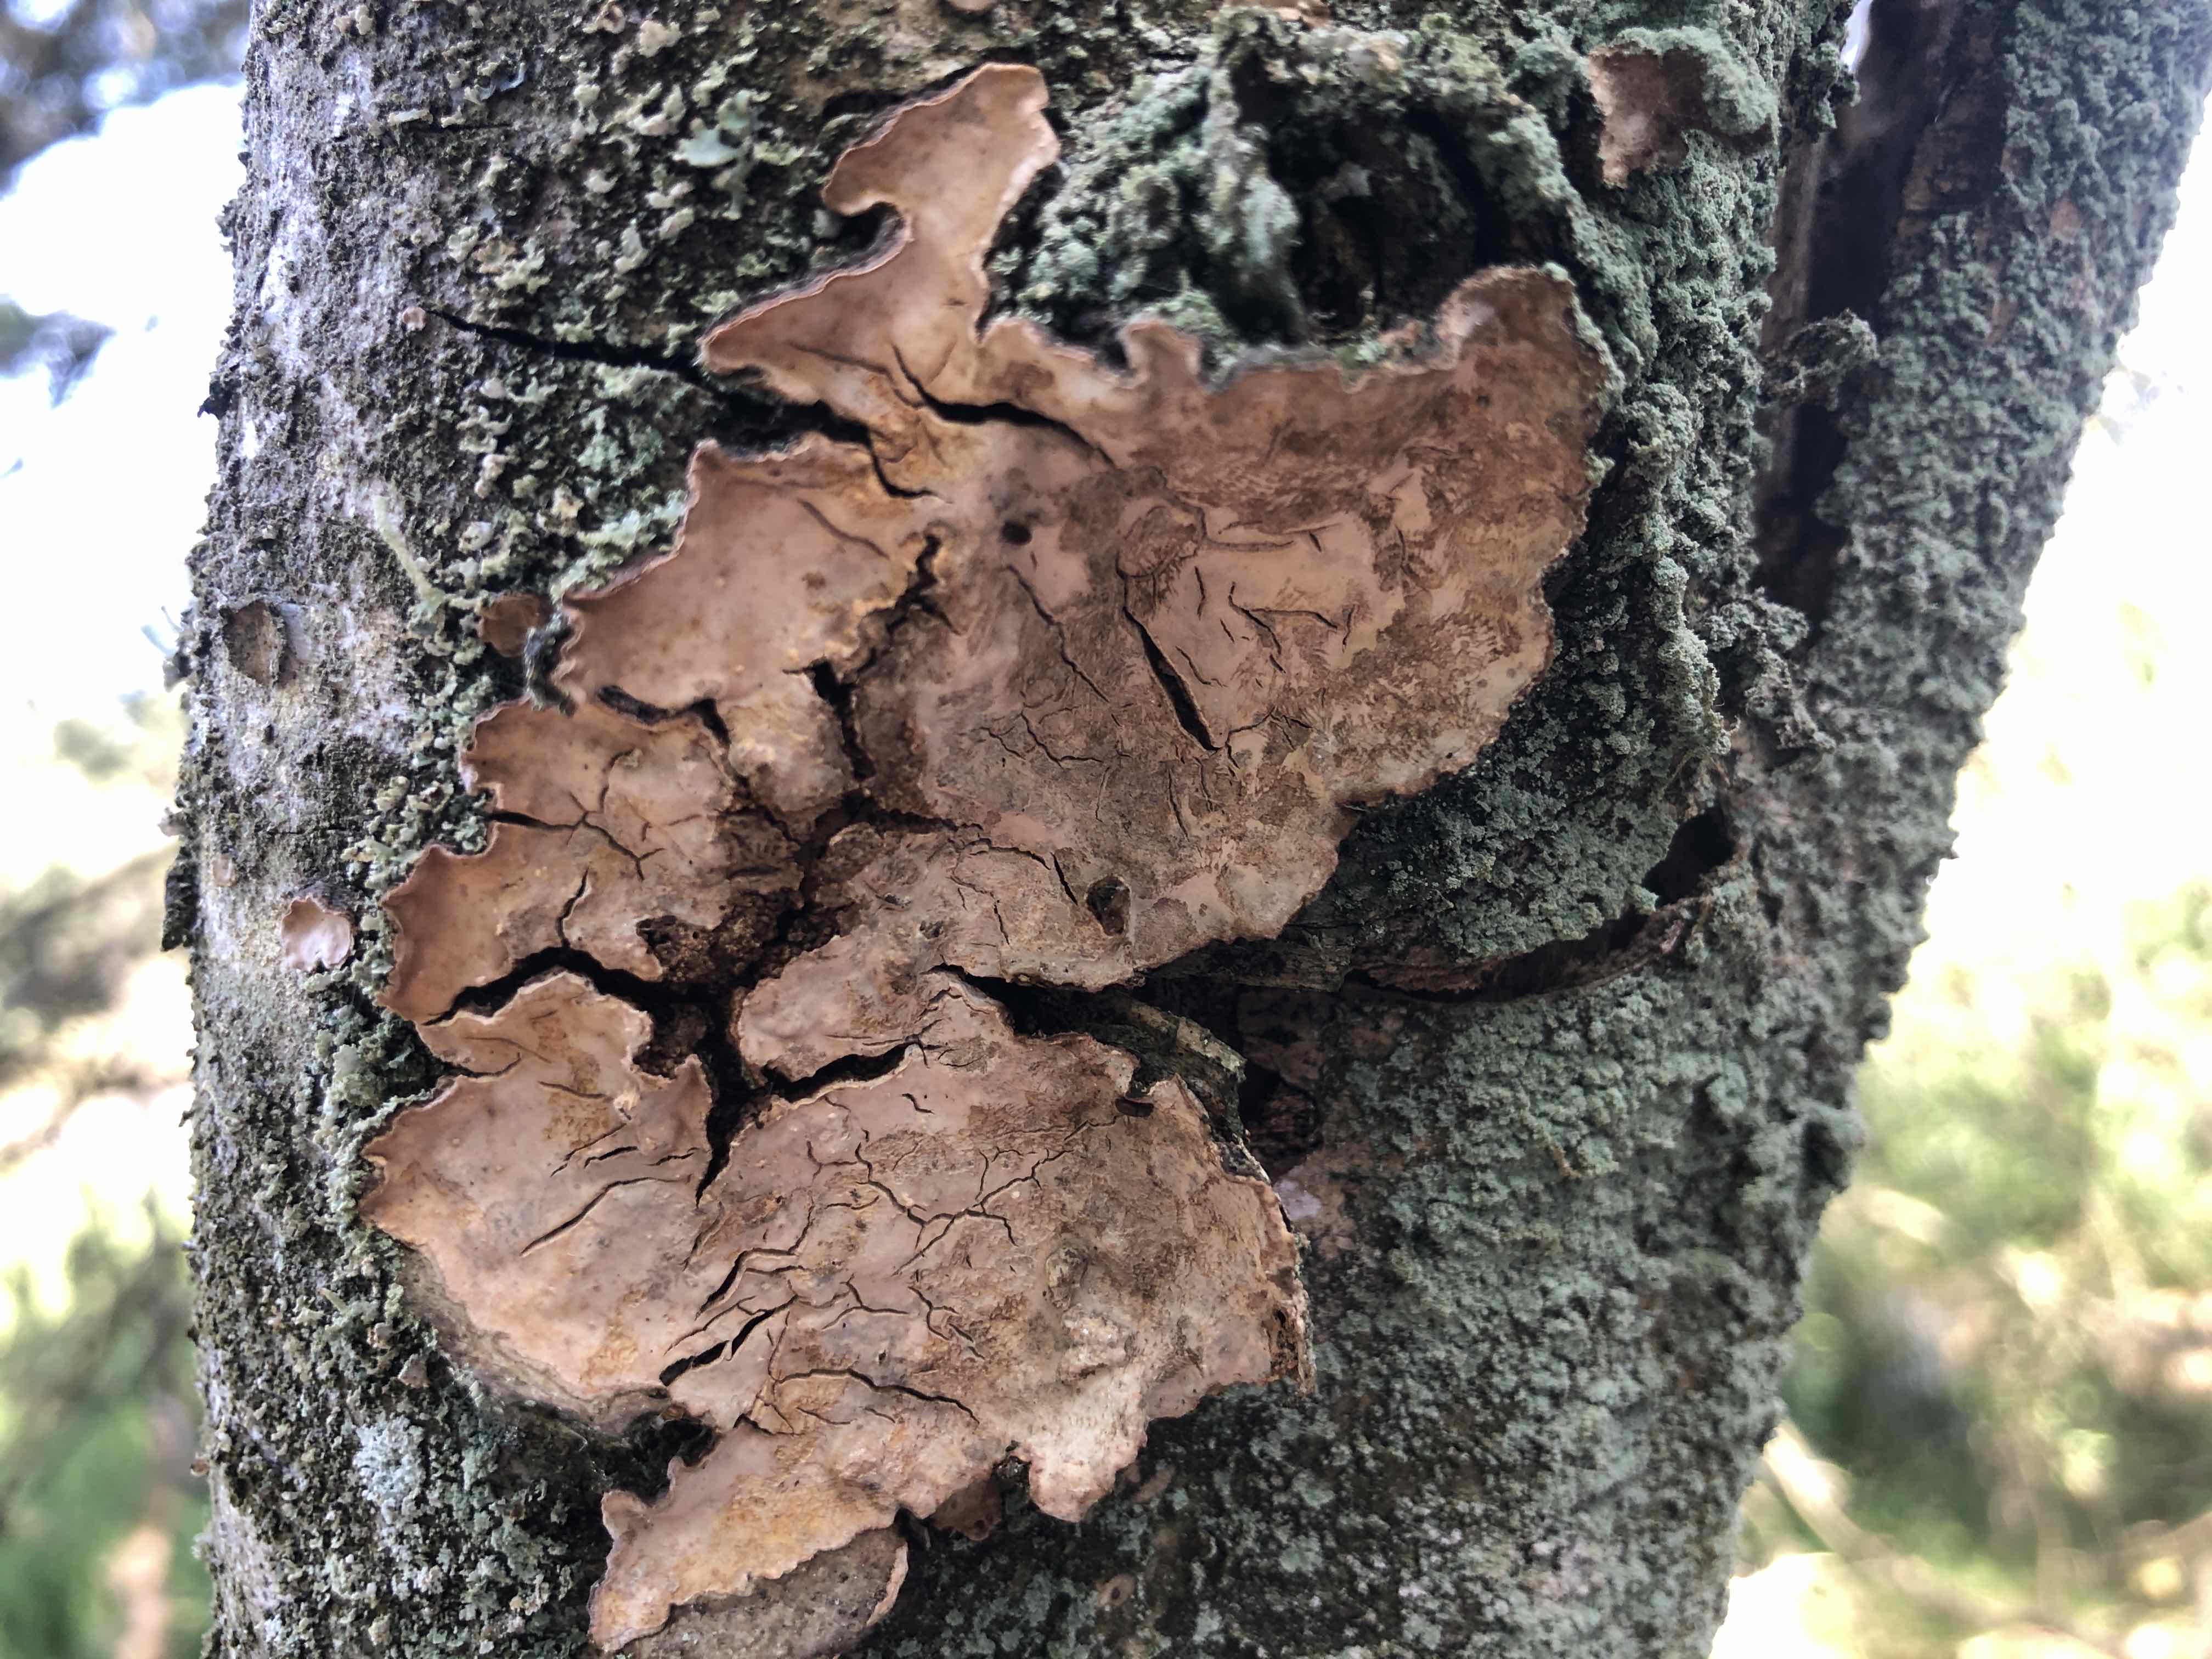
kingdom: Fungi
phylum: Basidiomycota
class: Agaricomycetes
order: Russulales
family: Stereaceae
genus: Stereum
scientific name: Stereum rugosum
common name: rynket lædersvamp
